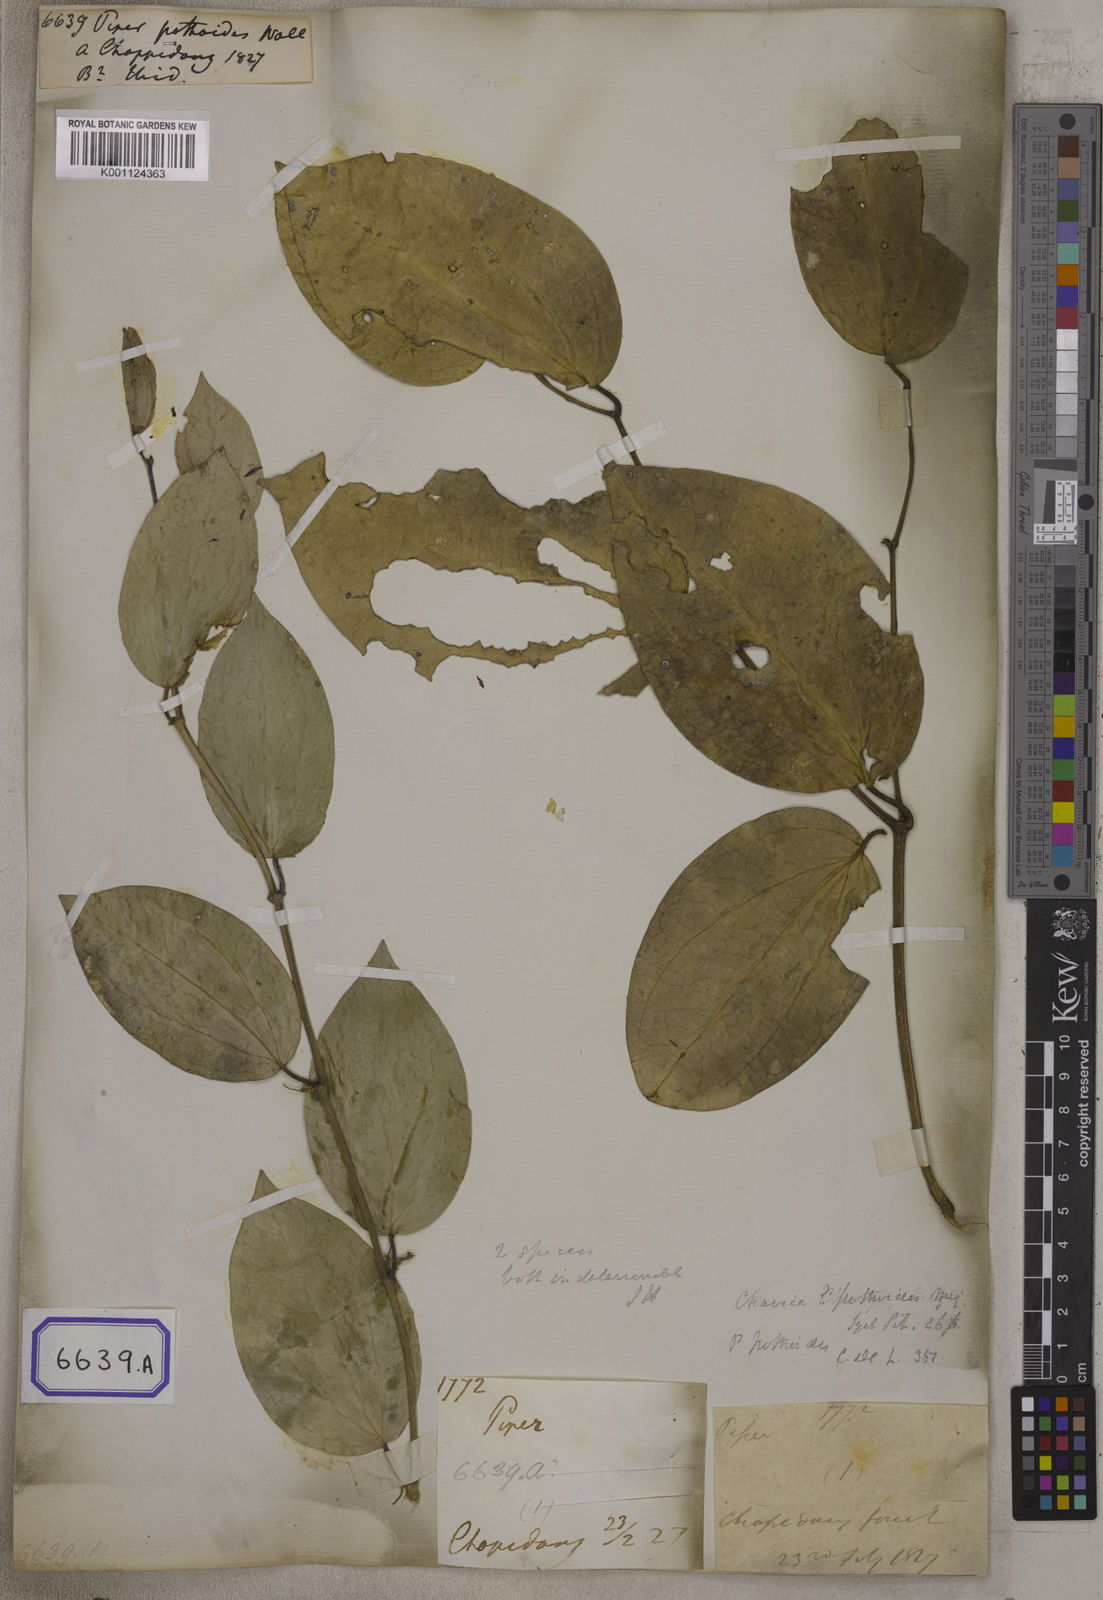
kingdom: Plantae
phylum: Tracheophyta
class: Magnoliopsida
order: Piperales
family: Piperaceae
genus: Piper
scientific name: Piper
